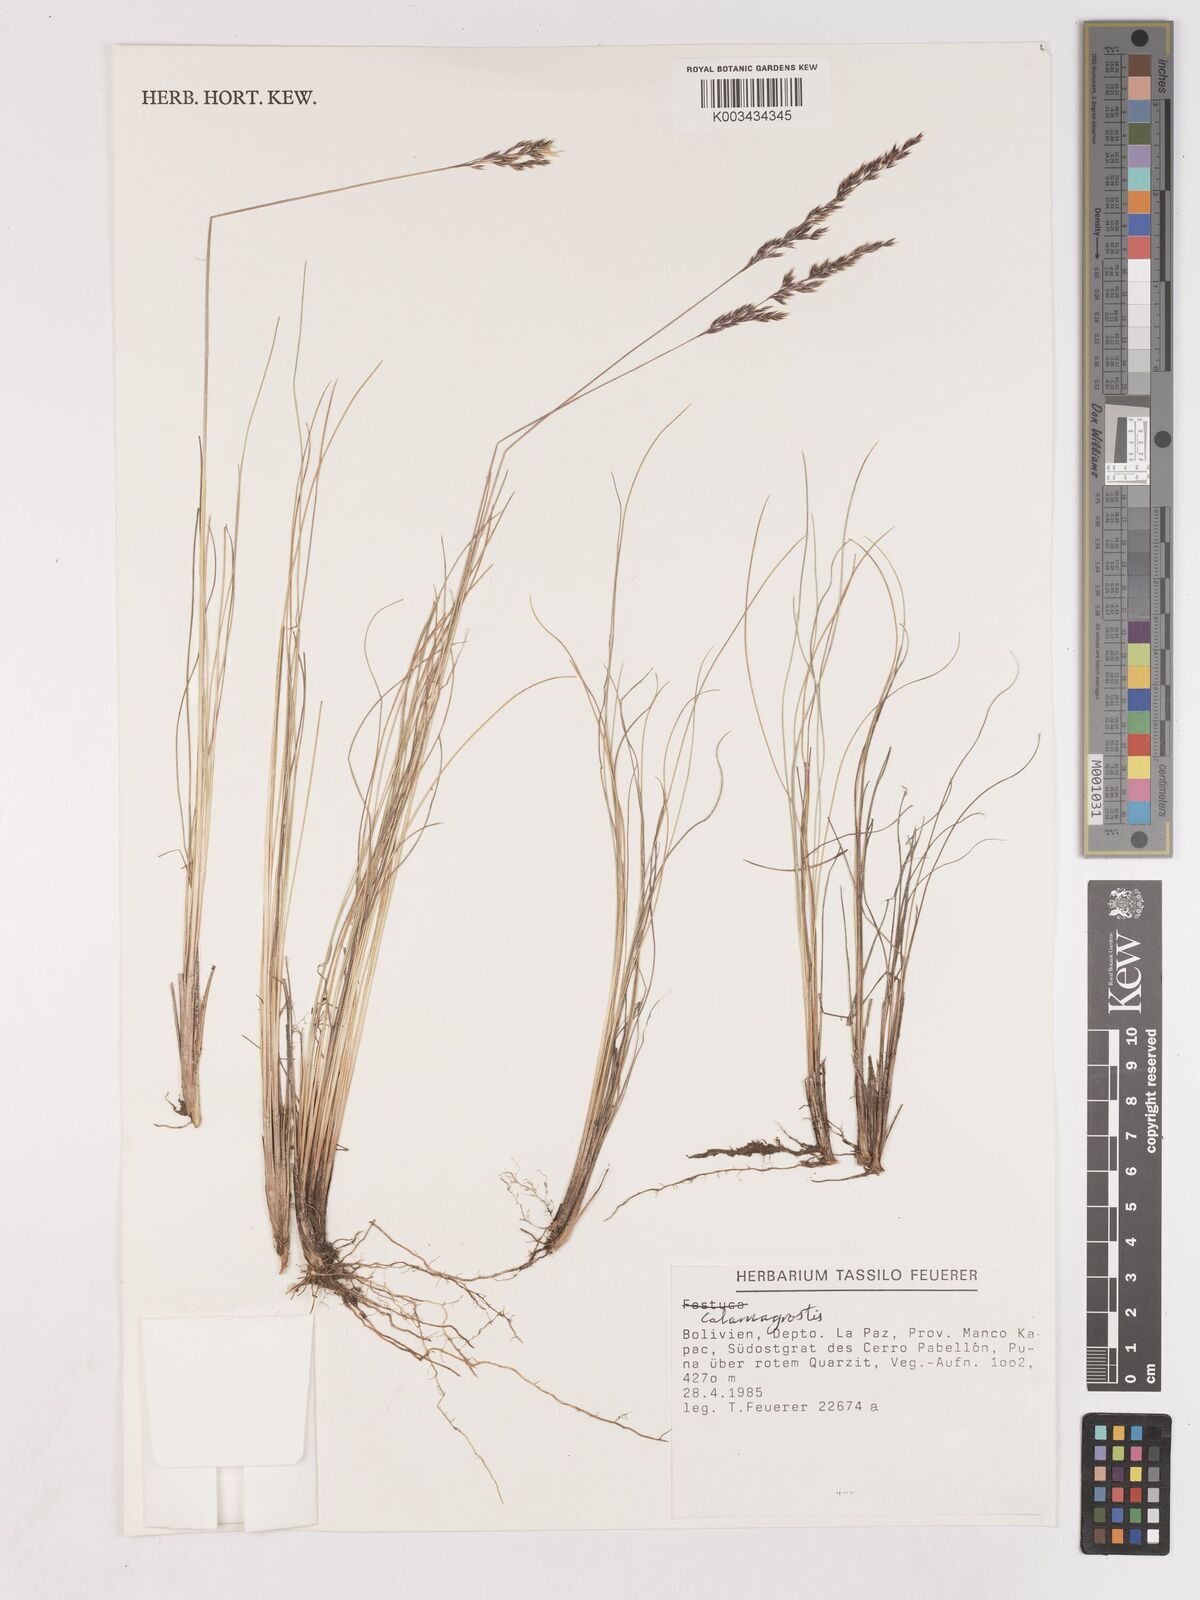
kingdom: Plantae
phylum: Tracheophyta
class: Liliopsida
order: Poales
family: Poaceae
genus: Cinnagrostis
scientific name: Cinnagrostis violacea
